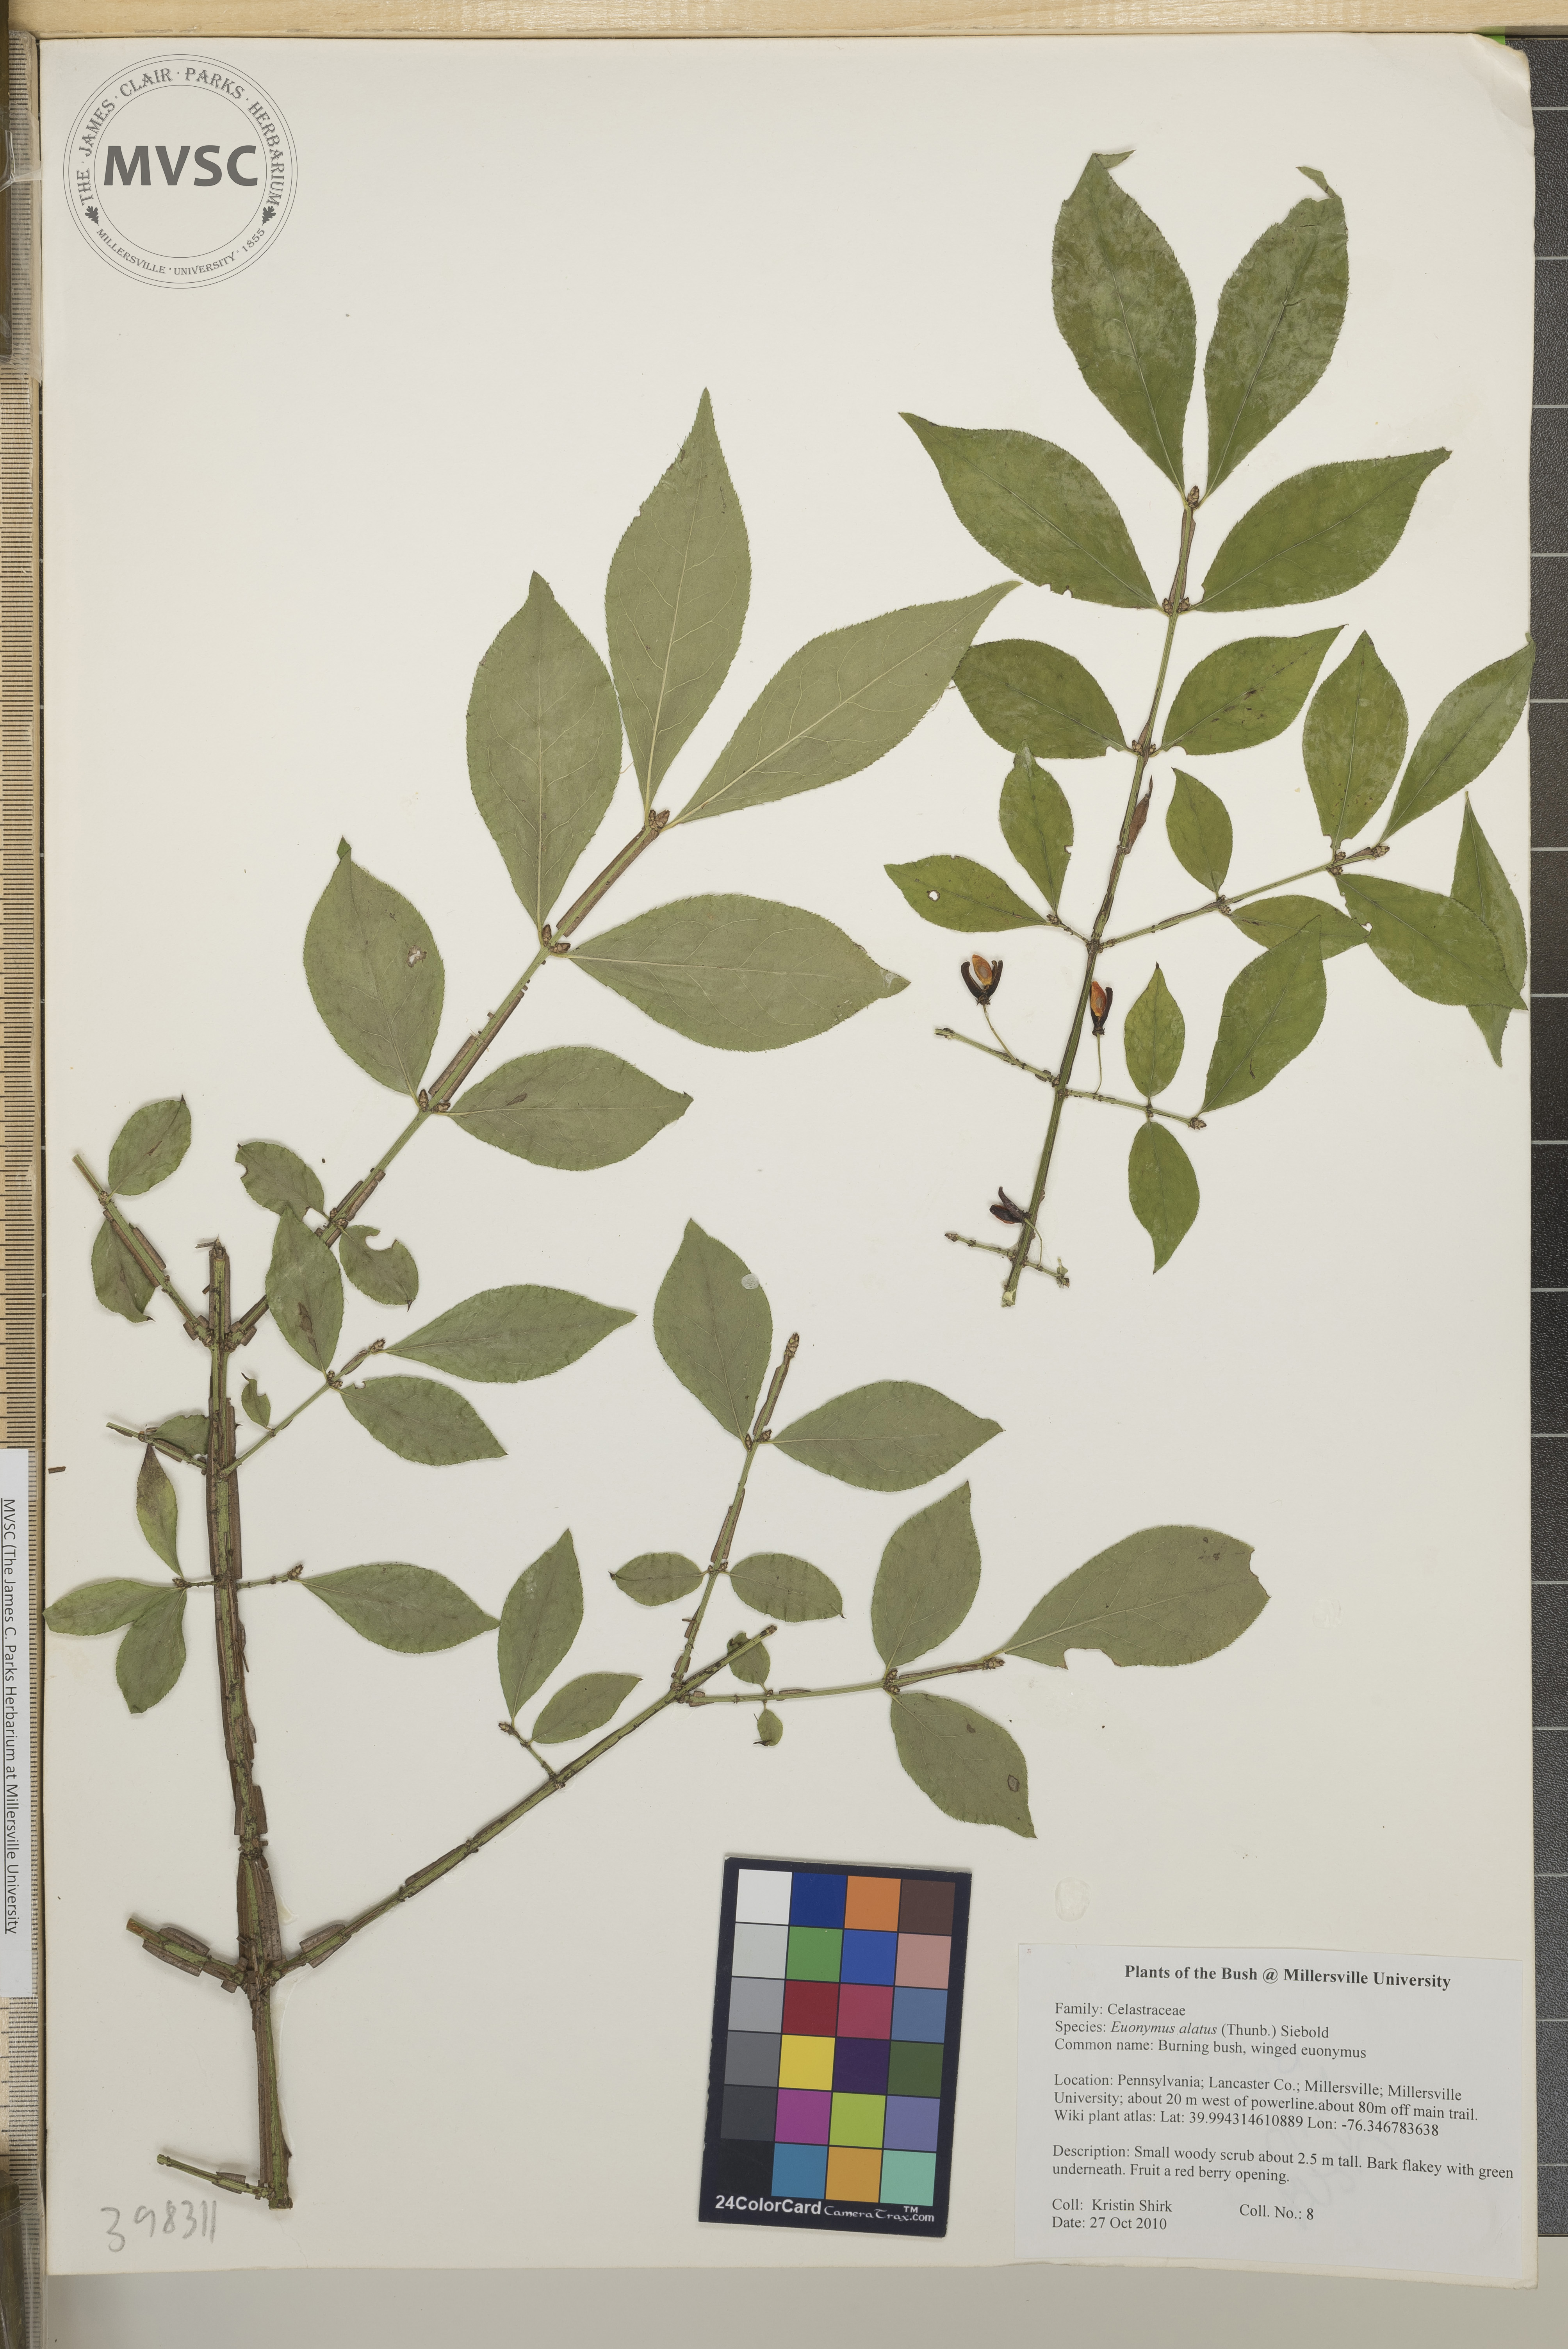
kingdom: Plantae
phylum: Tracheophyta
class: Magnoliopsida
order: Celastrales
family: Celastraceae
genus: Euonymus
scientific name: Euonymus alatus
